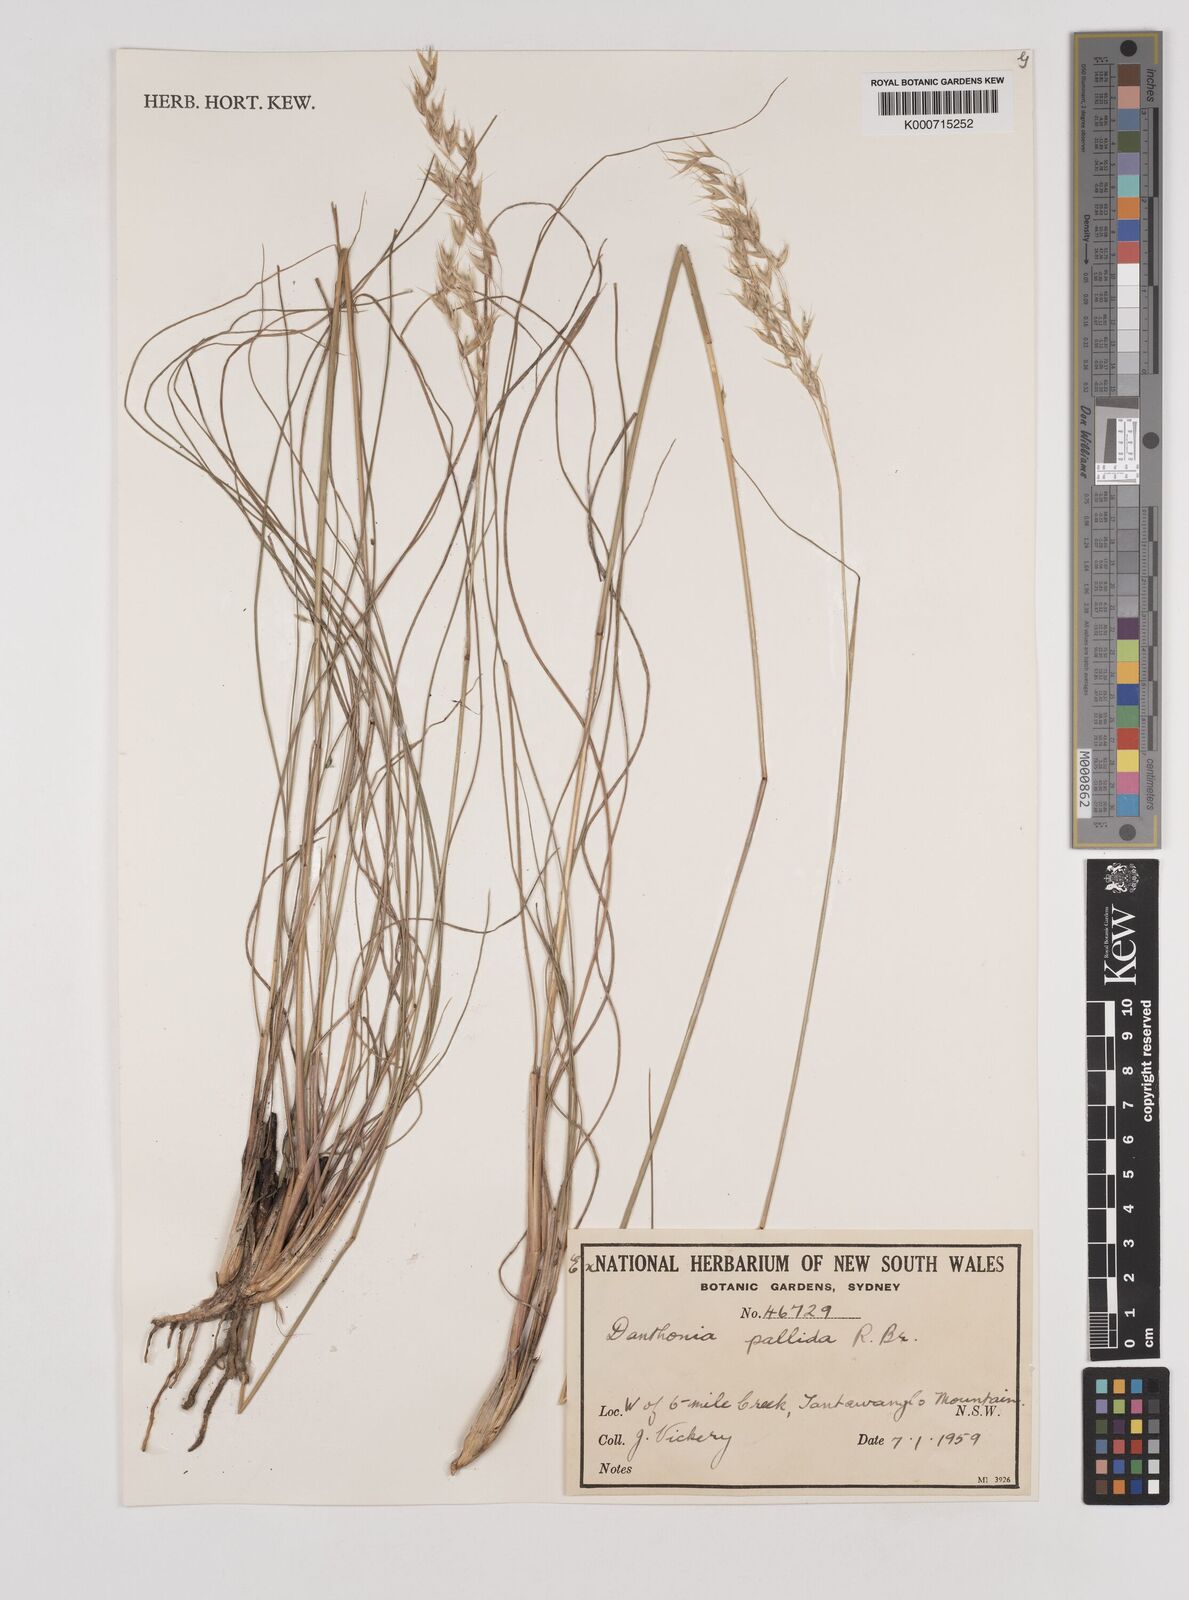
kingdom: Plantae
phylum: Tracheophyta
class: Liliopsida
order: Poales
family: Poaceae
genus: Rytidosperma
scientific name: Rytidosperma
